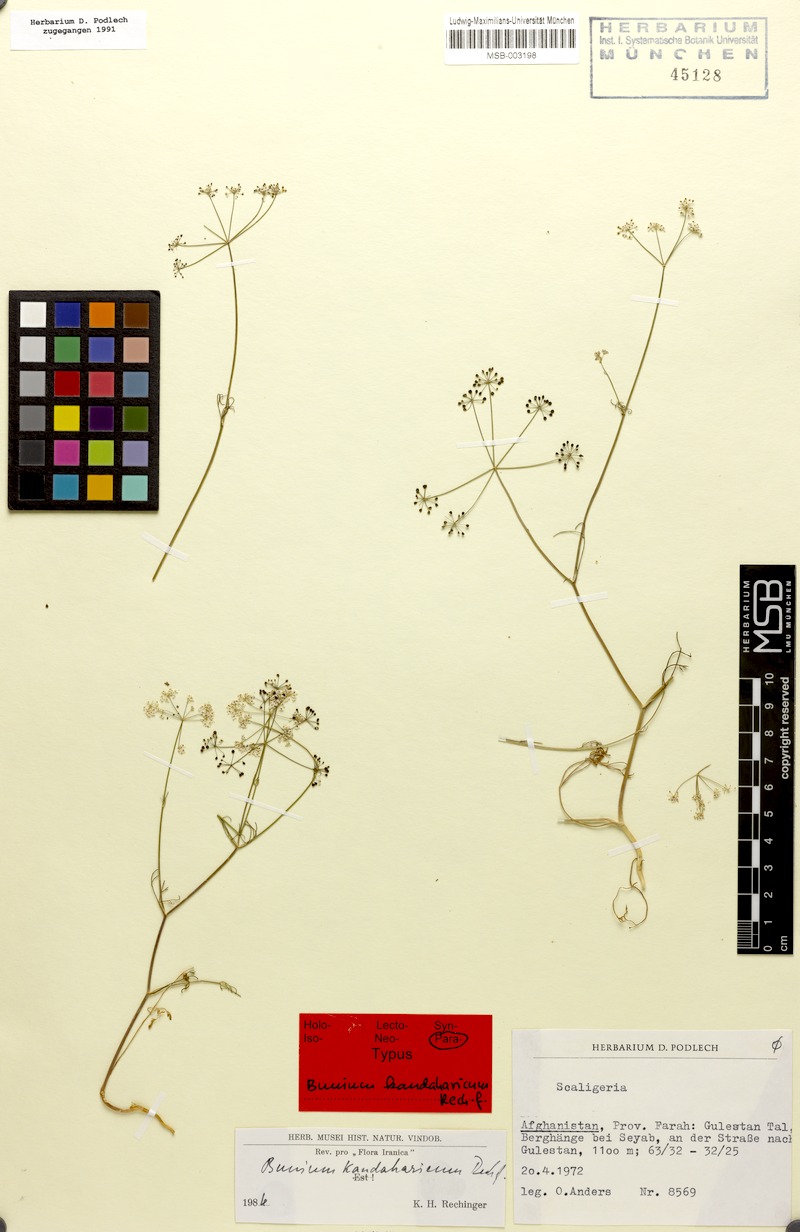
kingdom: Plantae
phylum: Tracheophyta
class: Magnoliopsida
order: Apiales
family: Apiaceae
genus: Elwendia
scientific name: Elwendia stewartiana
